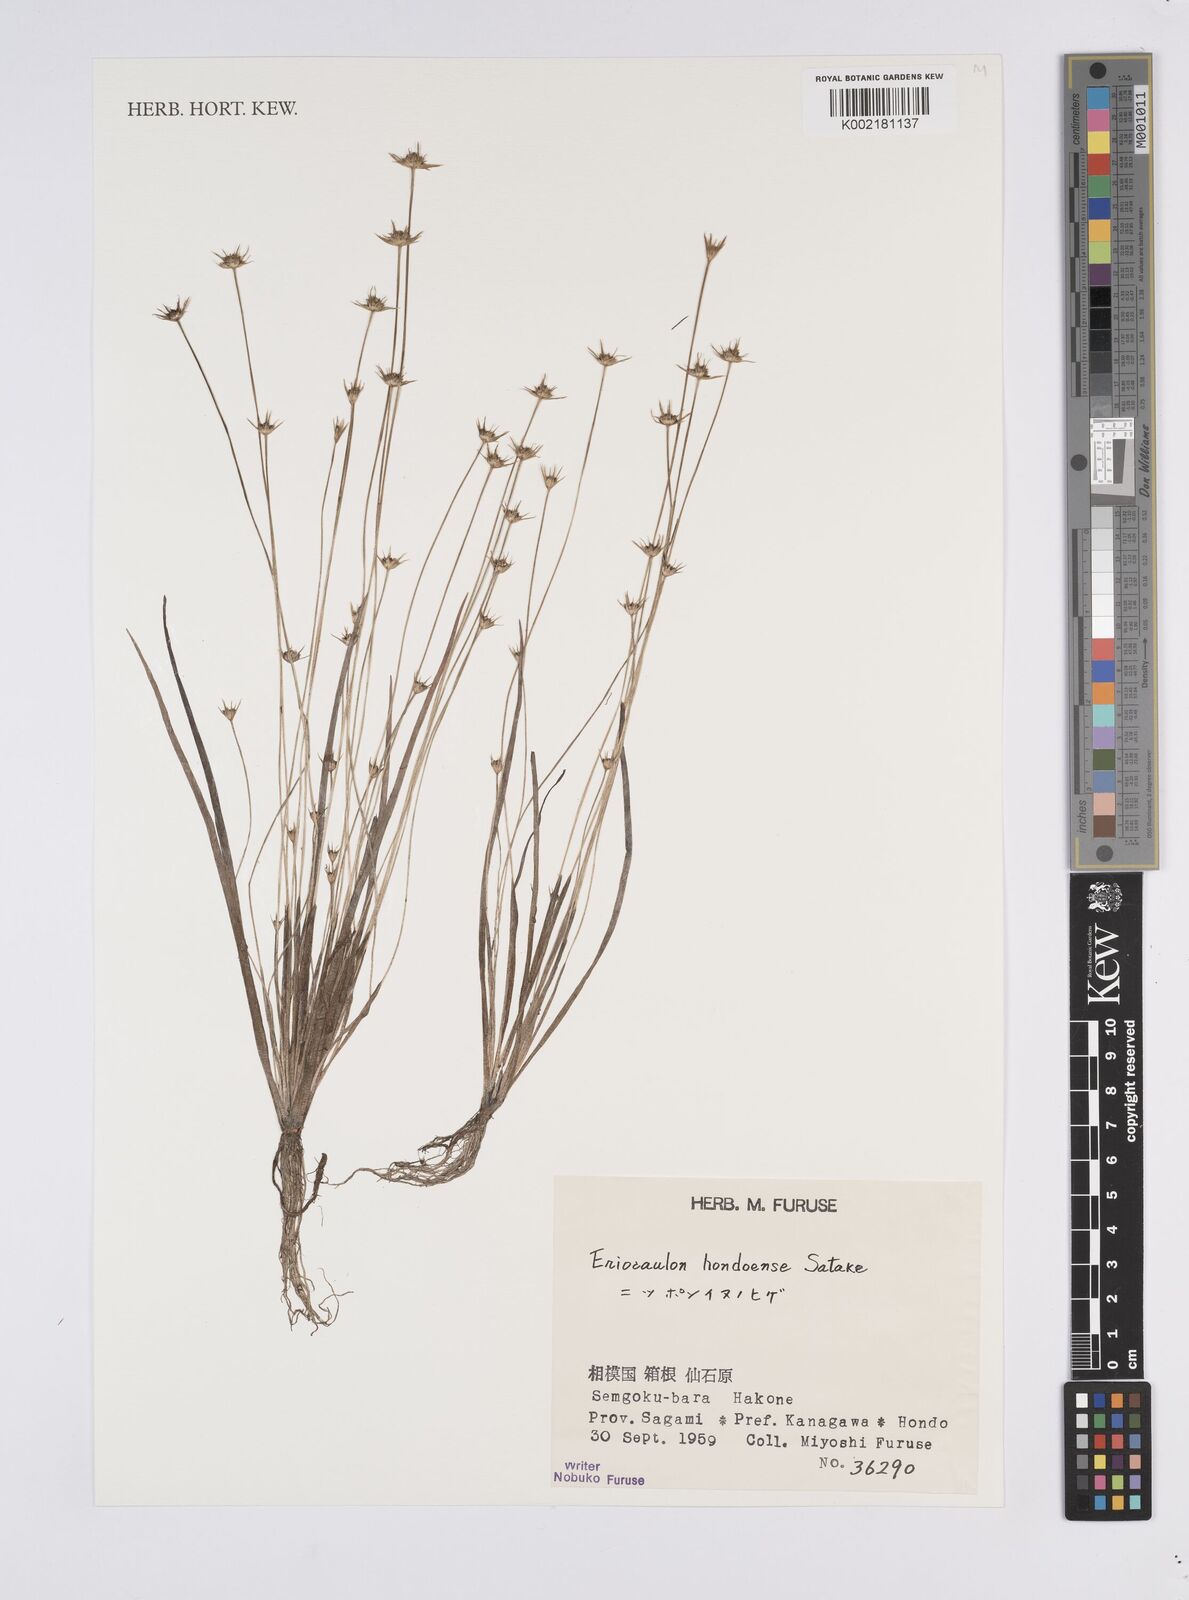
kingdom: Plantae
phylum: Tracheophyta
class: Liliopsida
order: Poales
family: Eriocaulaceae
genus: Eriocaulon
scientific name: Eriocaulon taquetii
